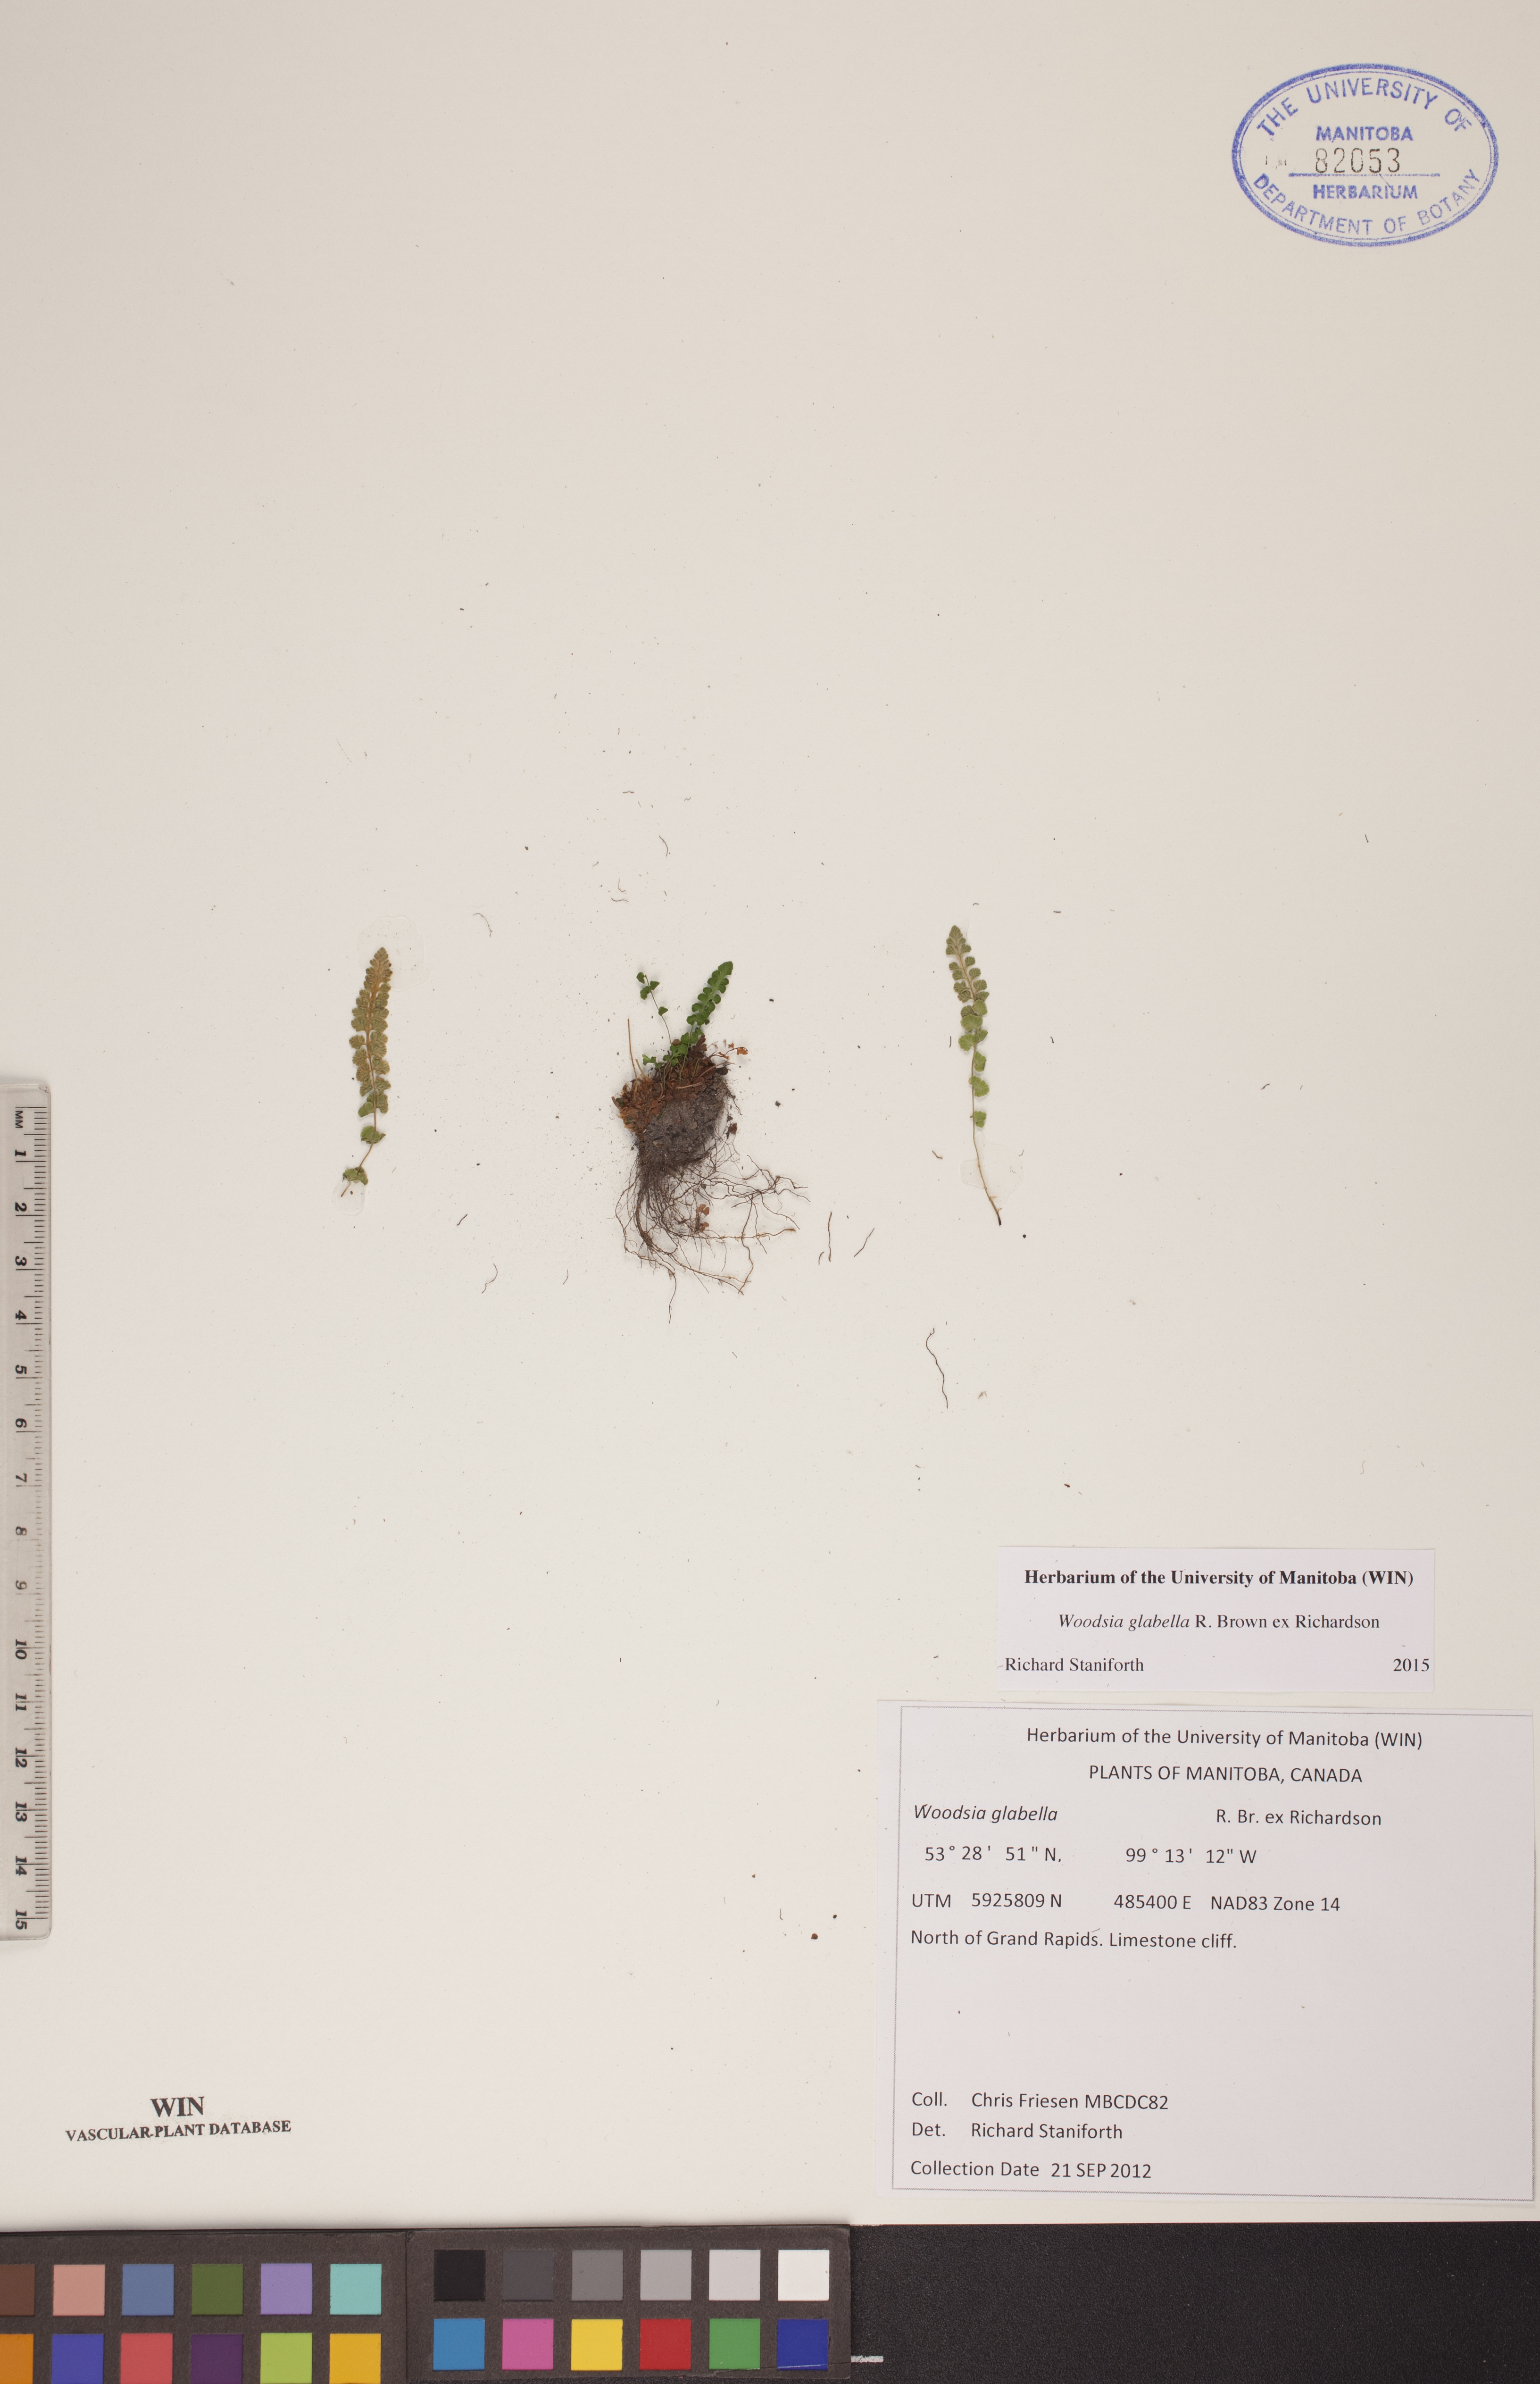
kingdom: Plantae
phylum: Tracheophyta
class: Polypodiopsida
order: Polypodiales
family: Woodsiaceae
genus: Woodsia
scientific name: Woodsia glabella
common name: Smooth woodsia
